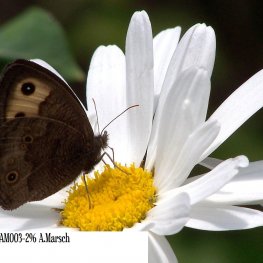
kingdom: Animalia
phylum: Arthropoda
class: Insecta
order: Lepidoptera
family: Nymphalidae
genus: Cercyonis
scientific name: Cercyonis pegala
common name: Common Wood-Nymph
